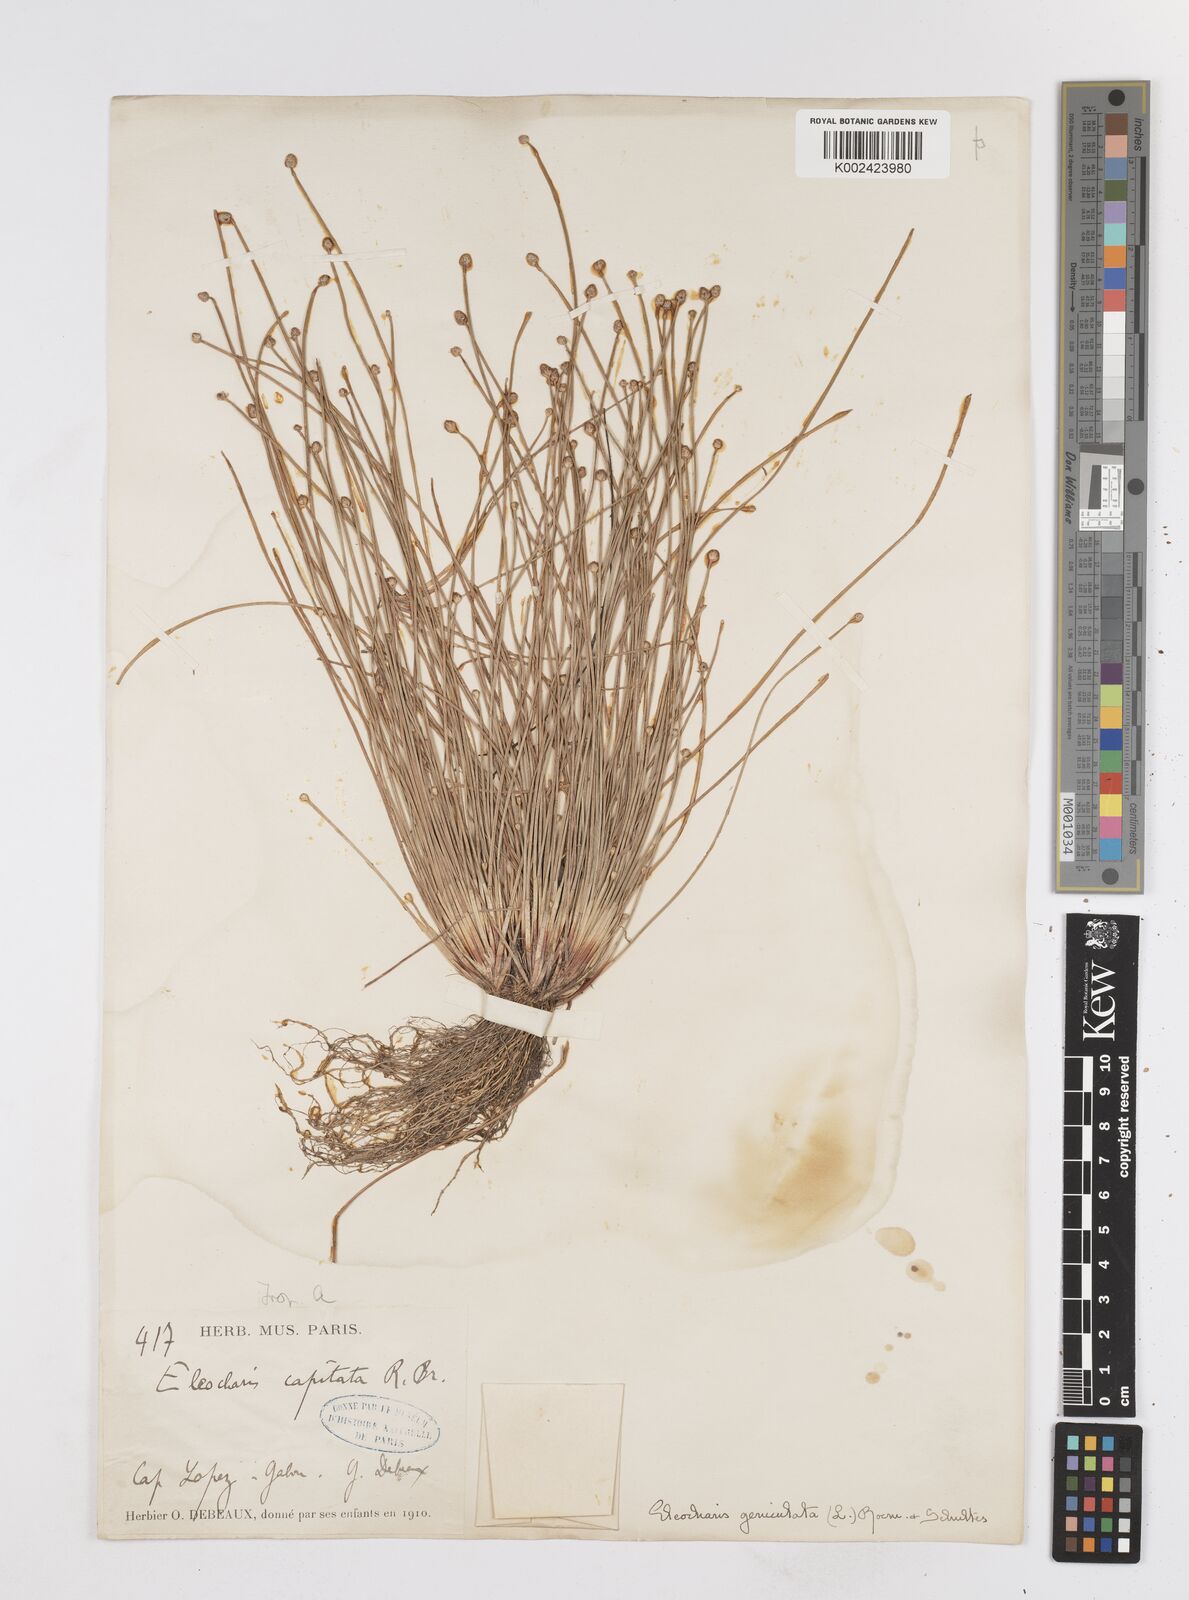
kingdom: Plantae
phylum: Tracheophyta
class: Liliopsida
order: Poales
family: Cyperaceae
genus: Eleocharis
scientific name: Eleocharis geniculata
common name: Canada spikesedge
